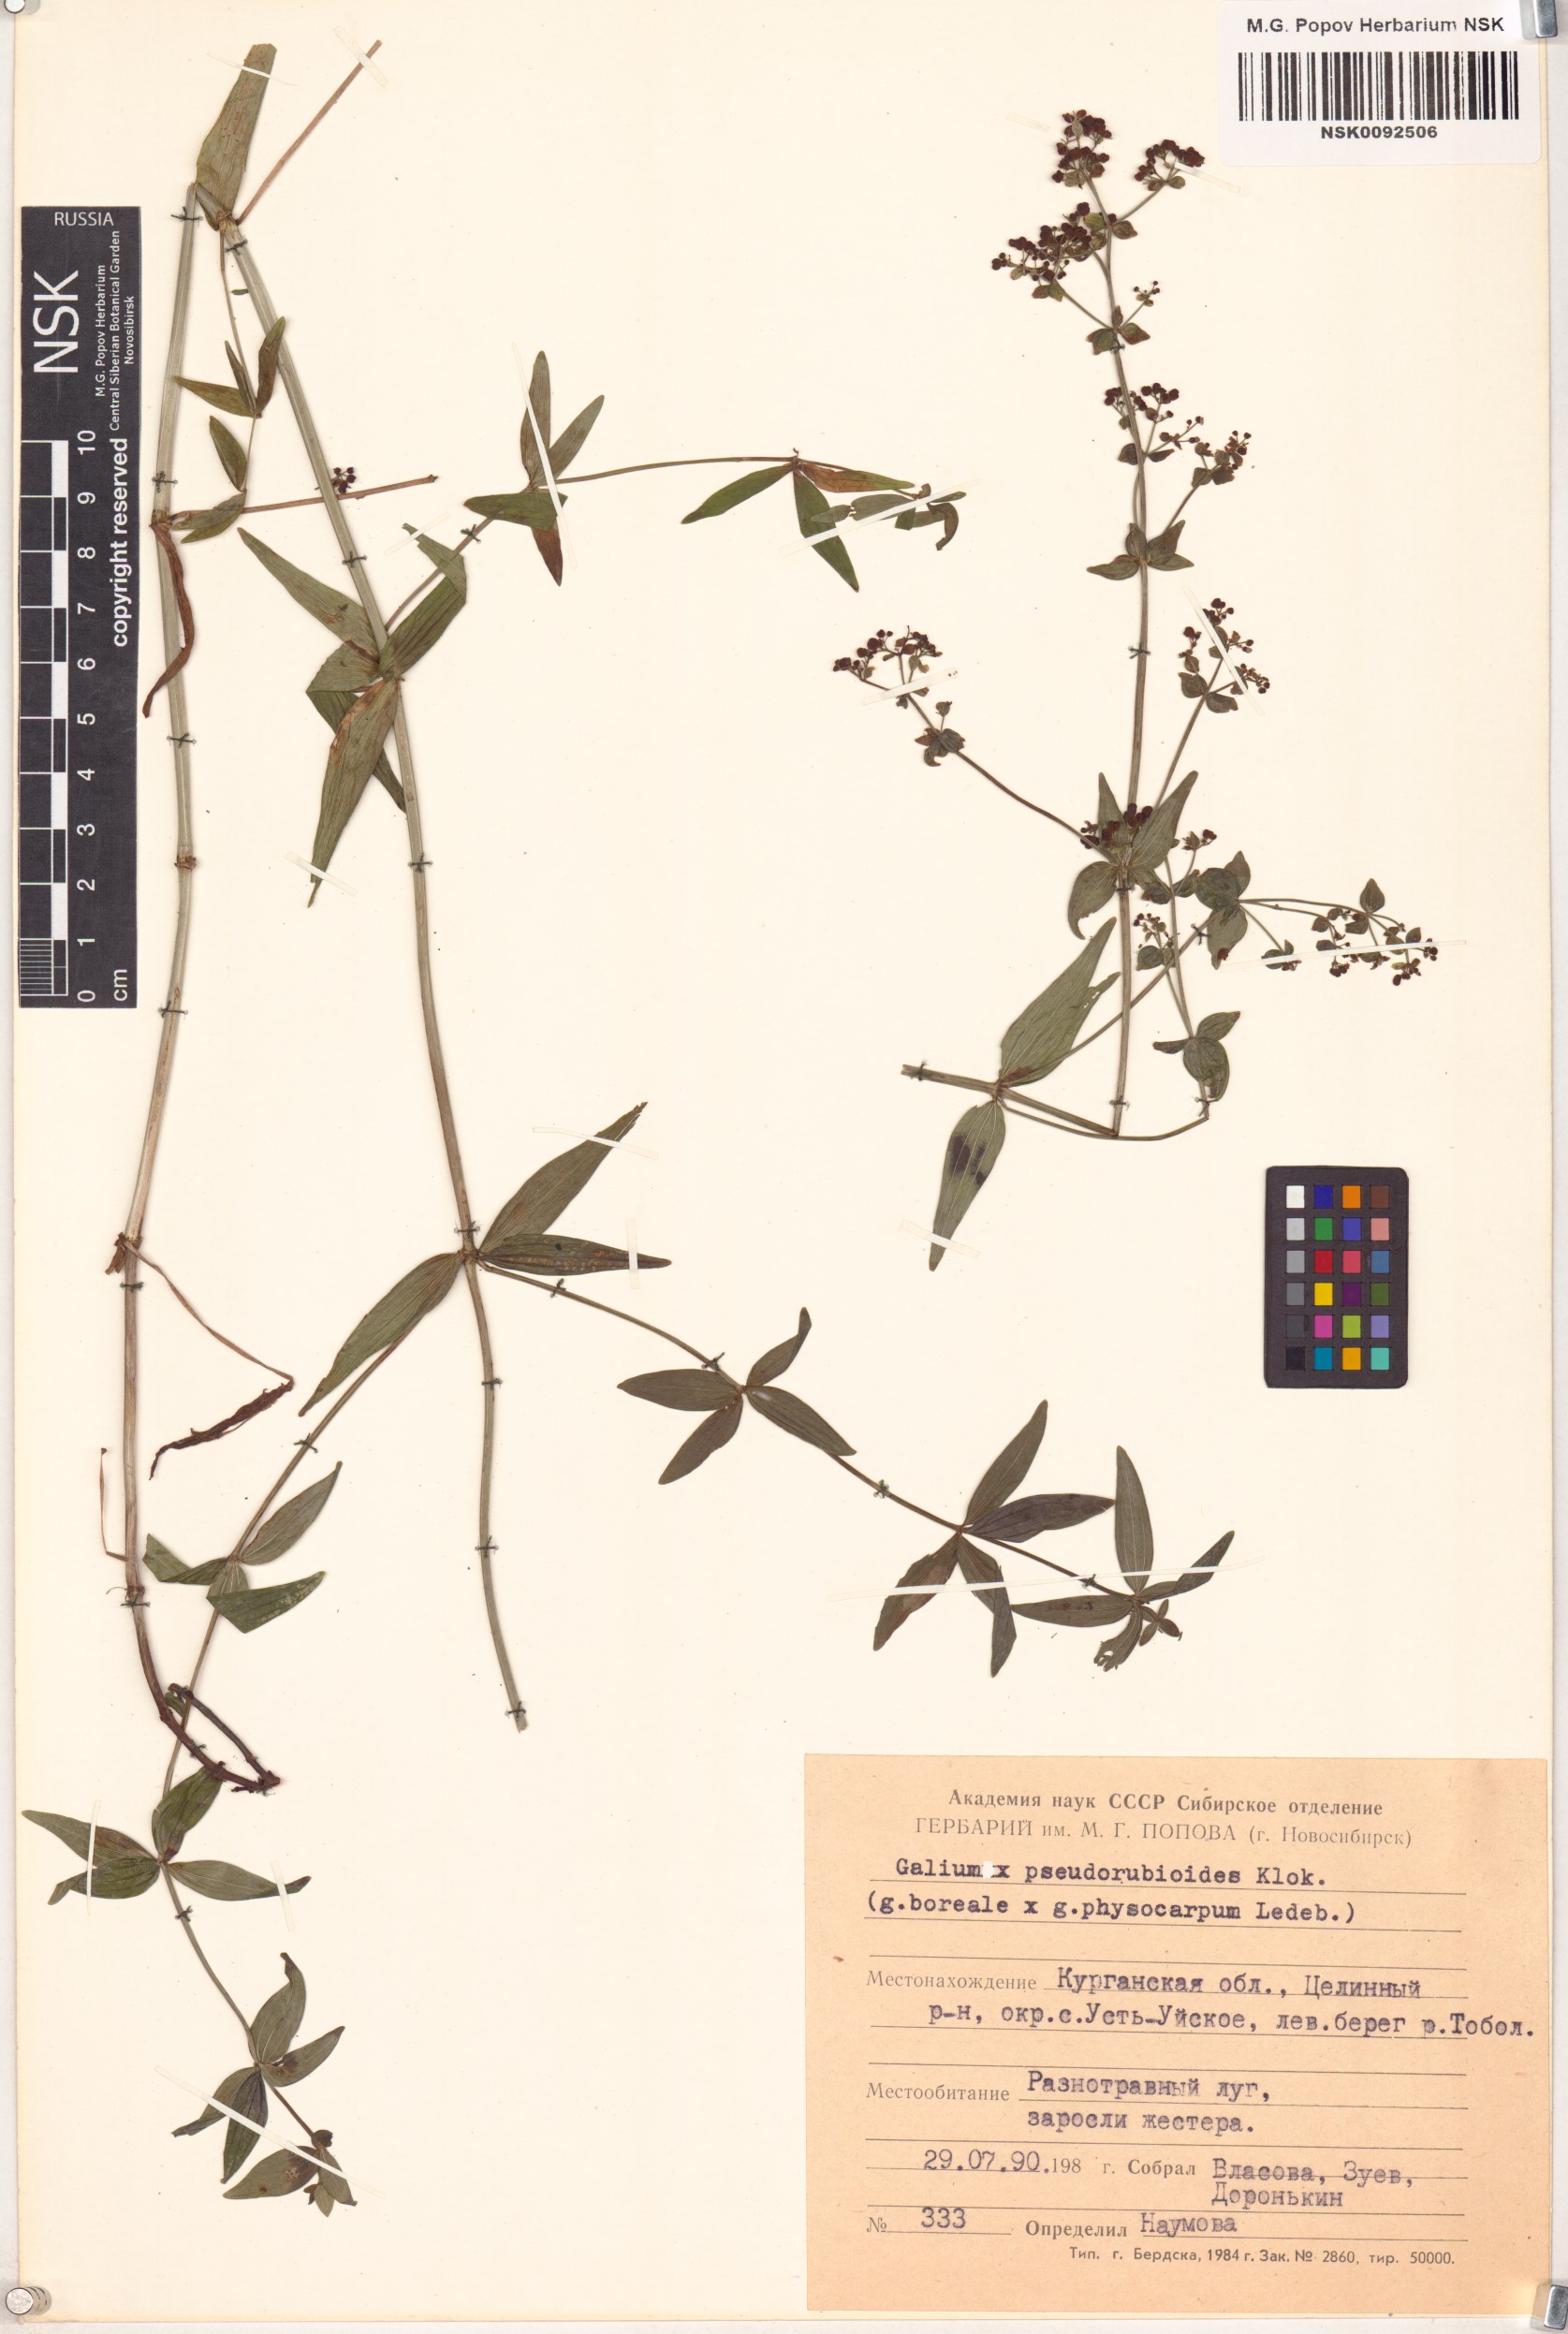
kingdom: Plantae
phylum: Tracheophyta
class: Magnoliopsida
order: Gentianales
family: Rubiaceae
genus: Galium
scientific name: Galium
